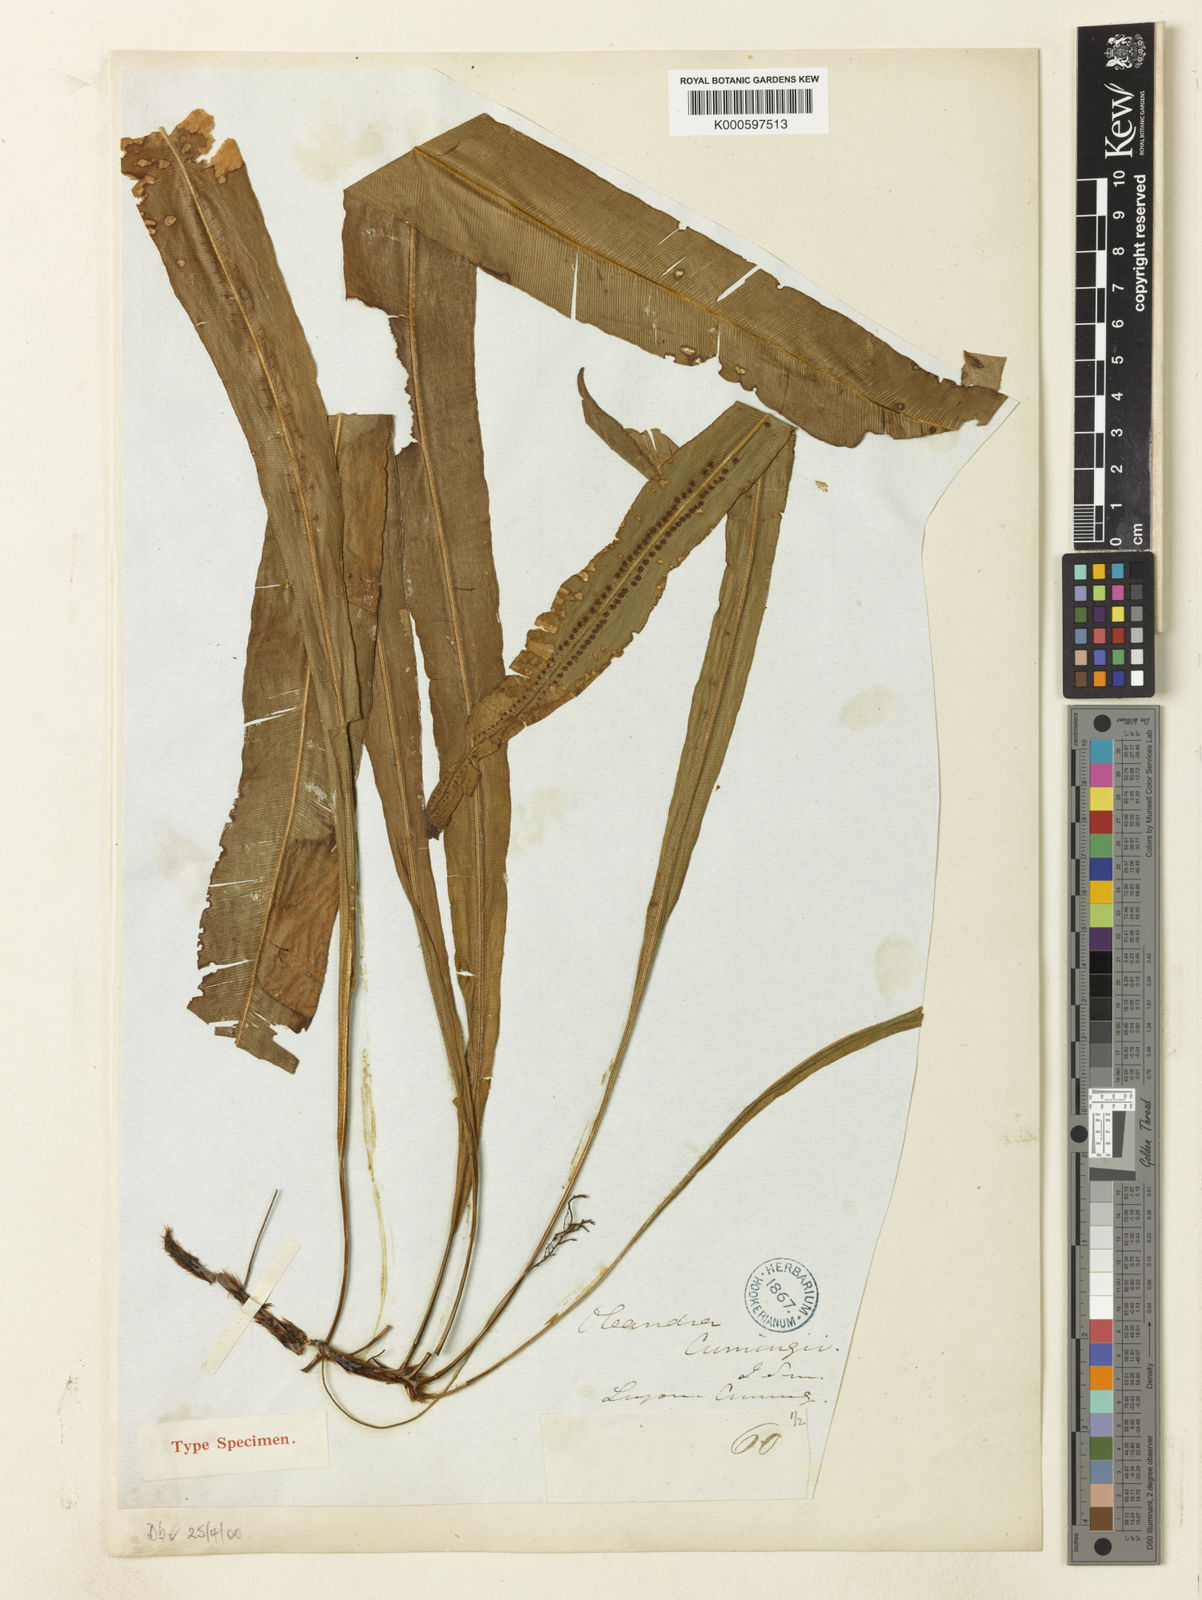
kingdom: Plantae
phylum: Tracheophyta
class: Polypodiopsida
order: Polypodiales
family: Oleandraceae
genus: Oleandra
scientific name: Oleandra undulata
